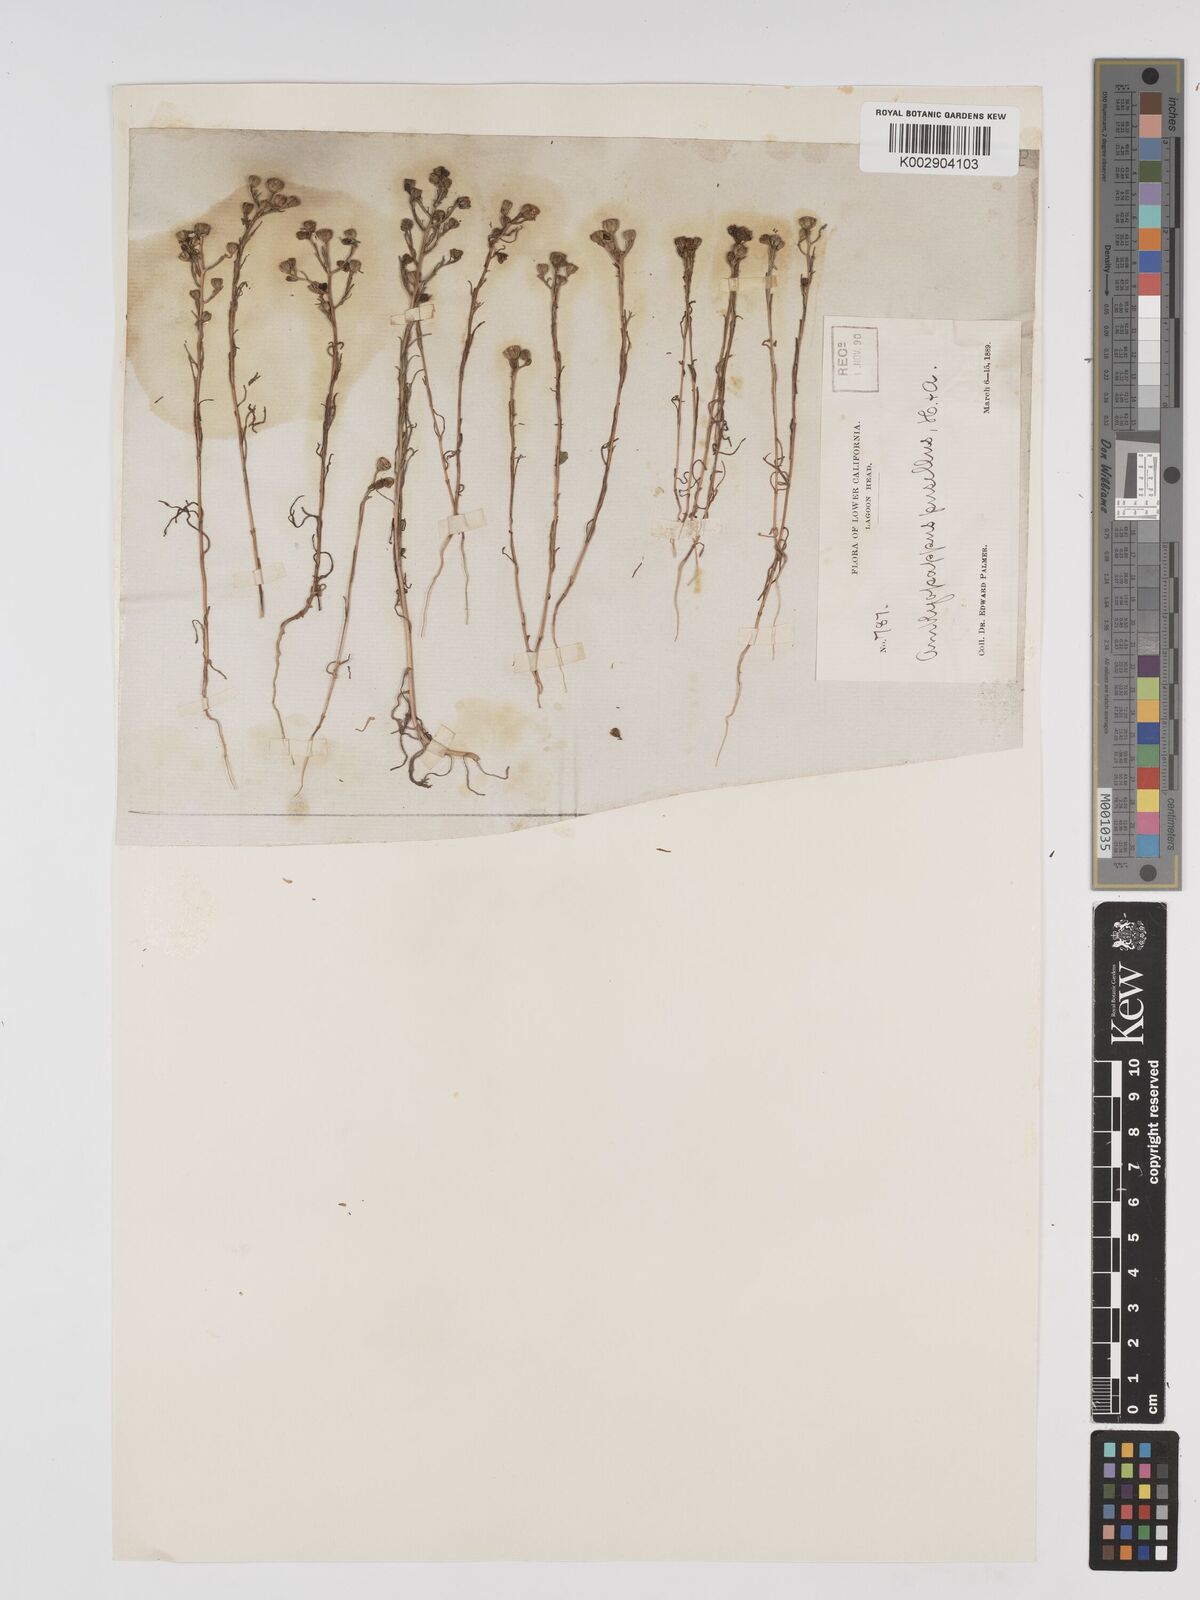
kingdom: Plantae
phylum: Tracheophyta
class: Magnoliopsida
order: Asterales
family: Asteraceae
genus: Amblyopappus
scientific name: Amblyopappus pusillus
